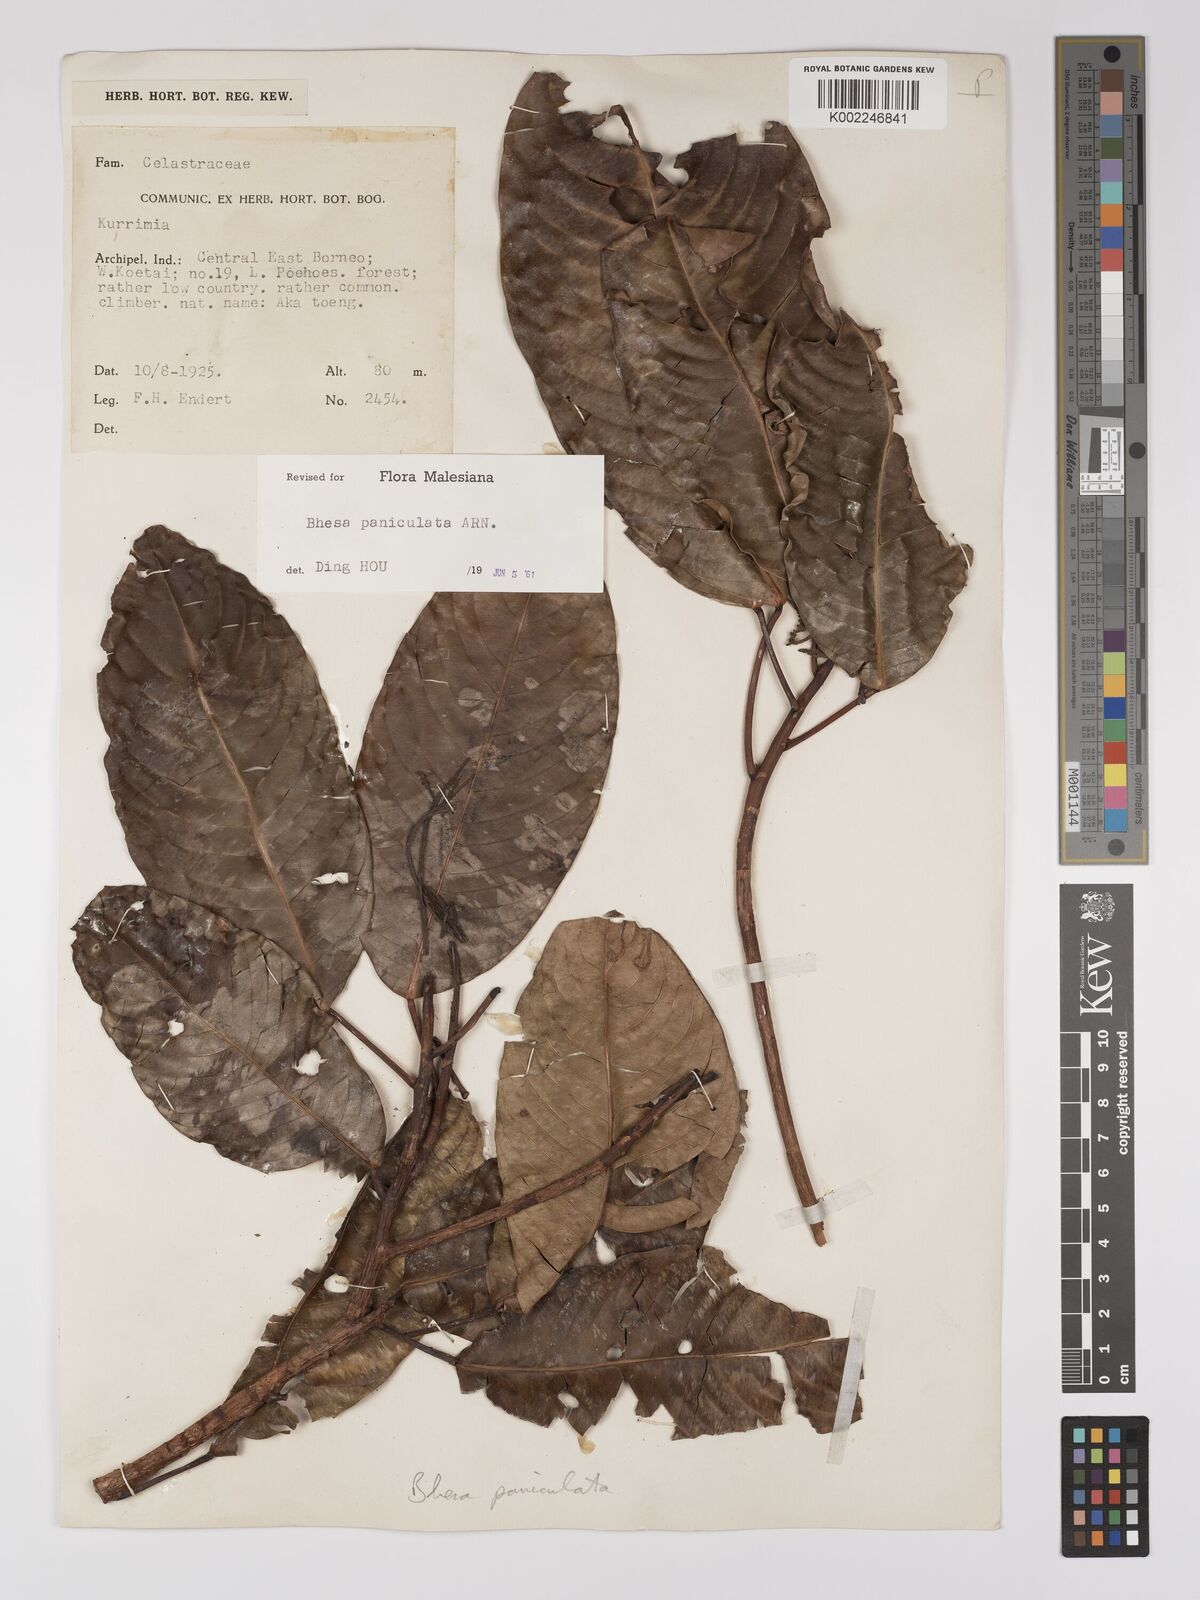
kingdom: Plantae
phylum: Tracheophyta
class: Magnoliopsida
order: Malpighiales
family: Centroplacaceae
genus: Bhesa
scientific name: Bhesa paniculata
